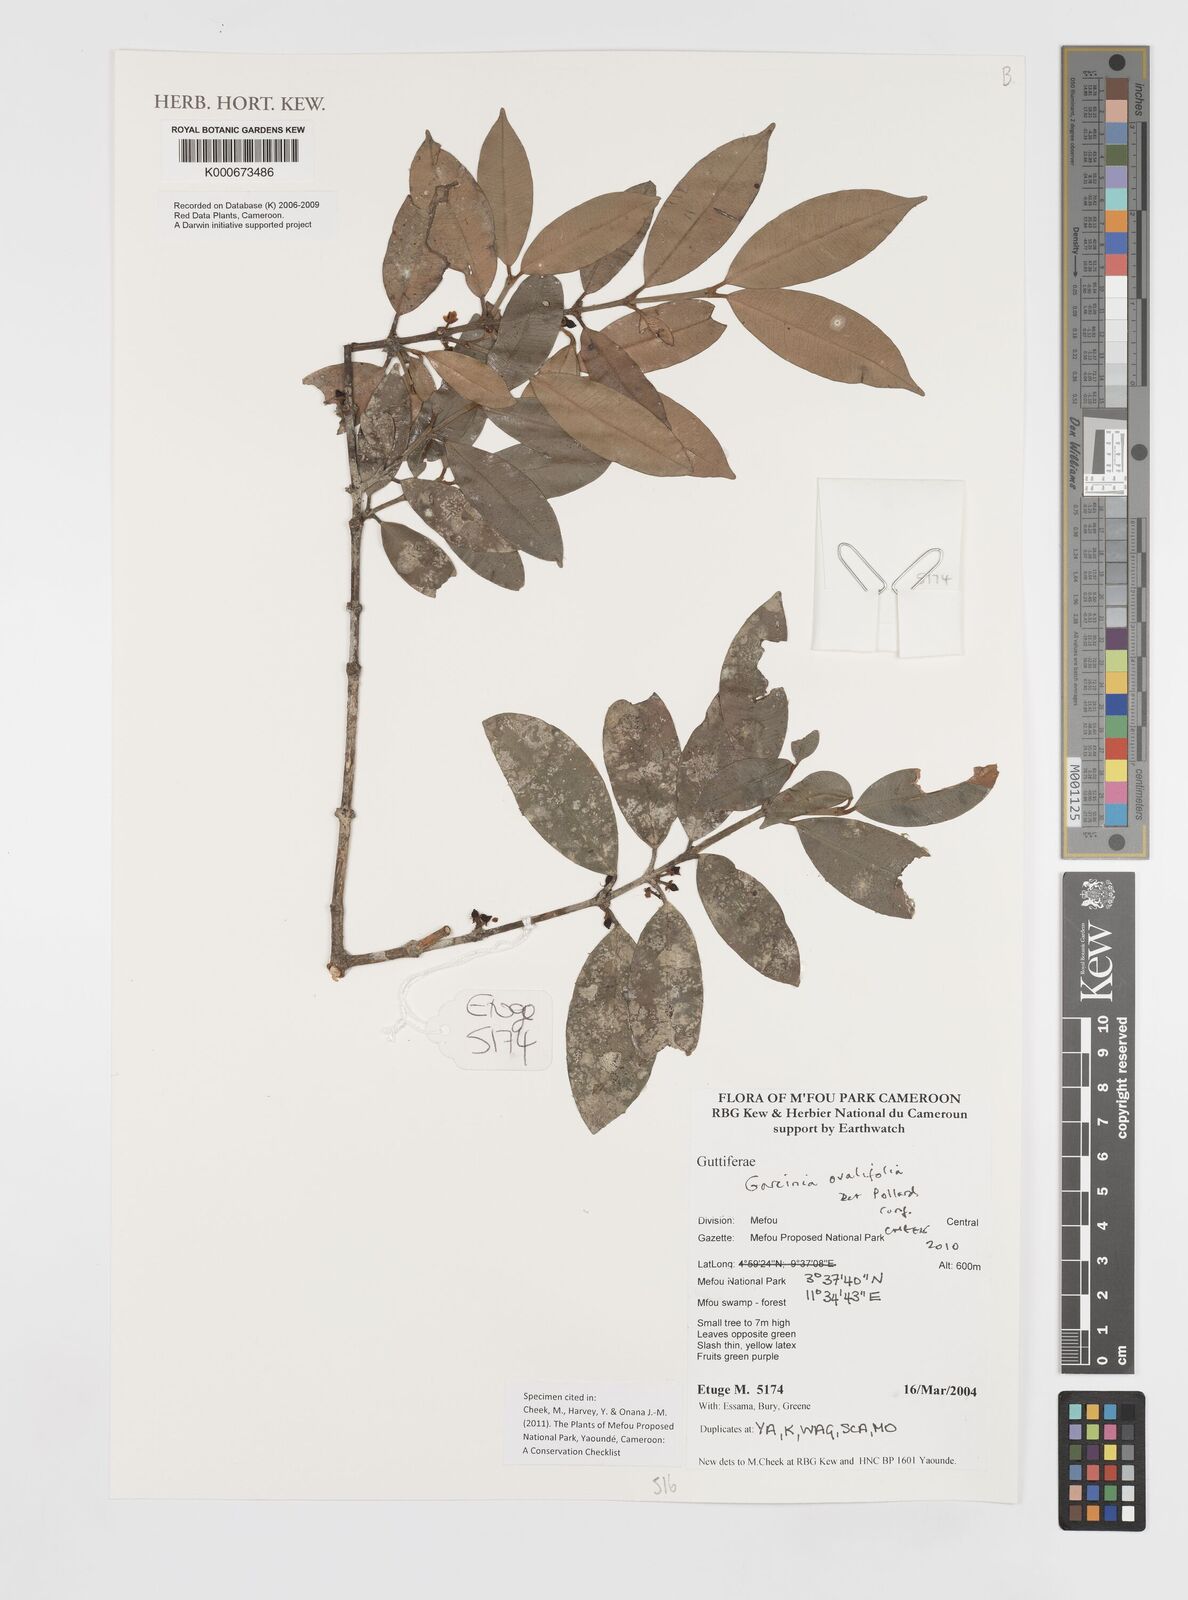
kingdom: Plantae
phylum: Tracheophyta
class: Magnoliopsida
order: Malpighiales
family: Clusiaceae
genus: Garcinia
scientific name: Garcinia ovalifolia
